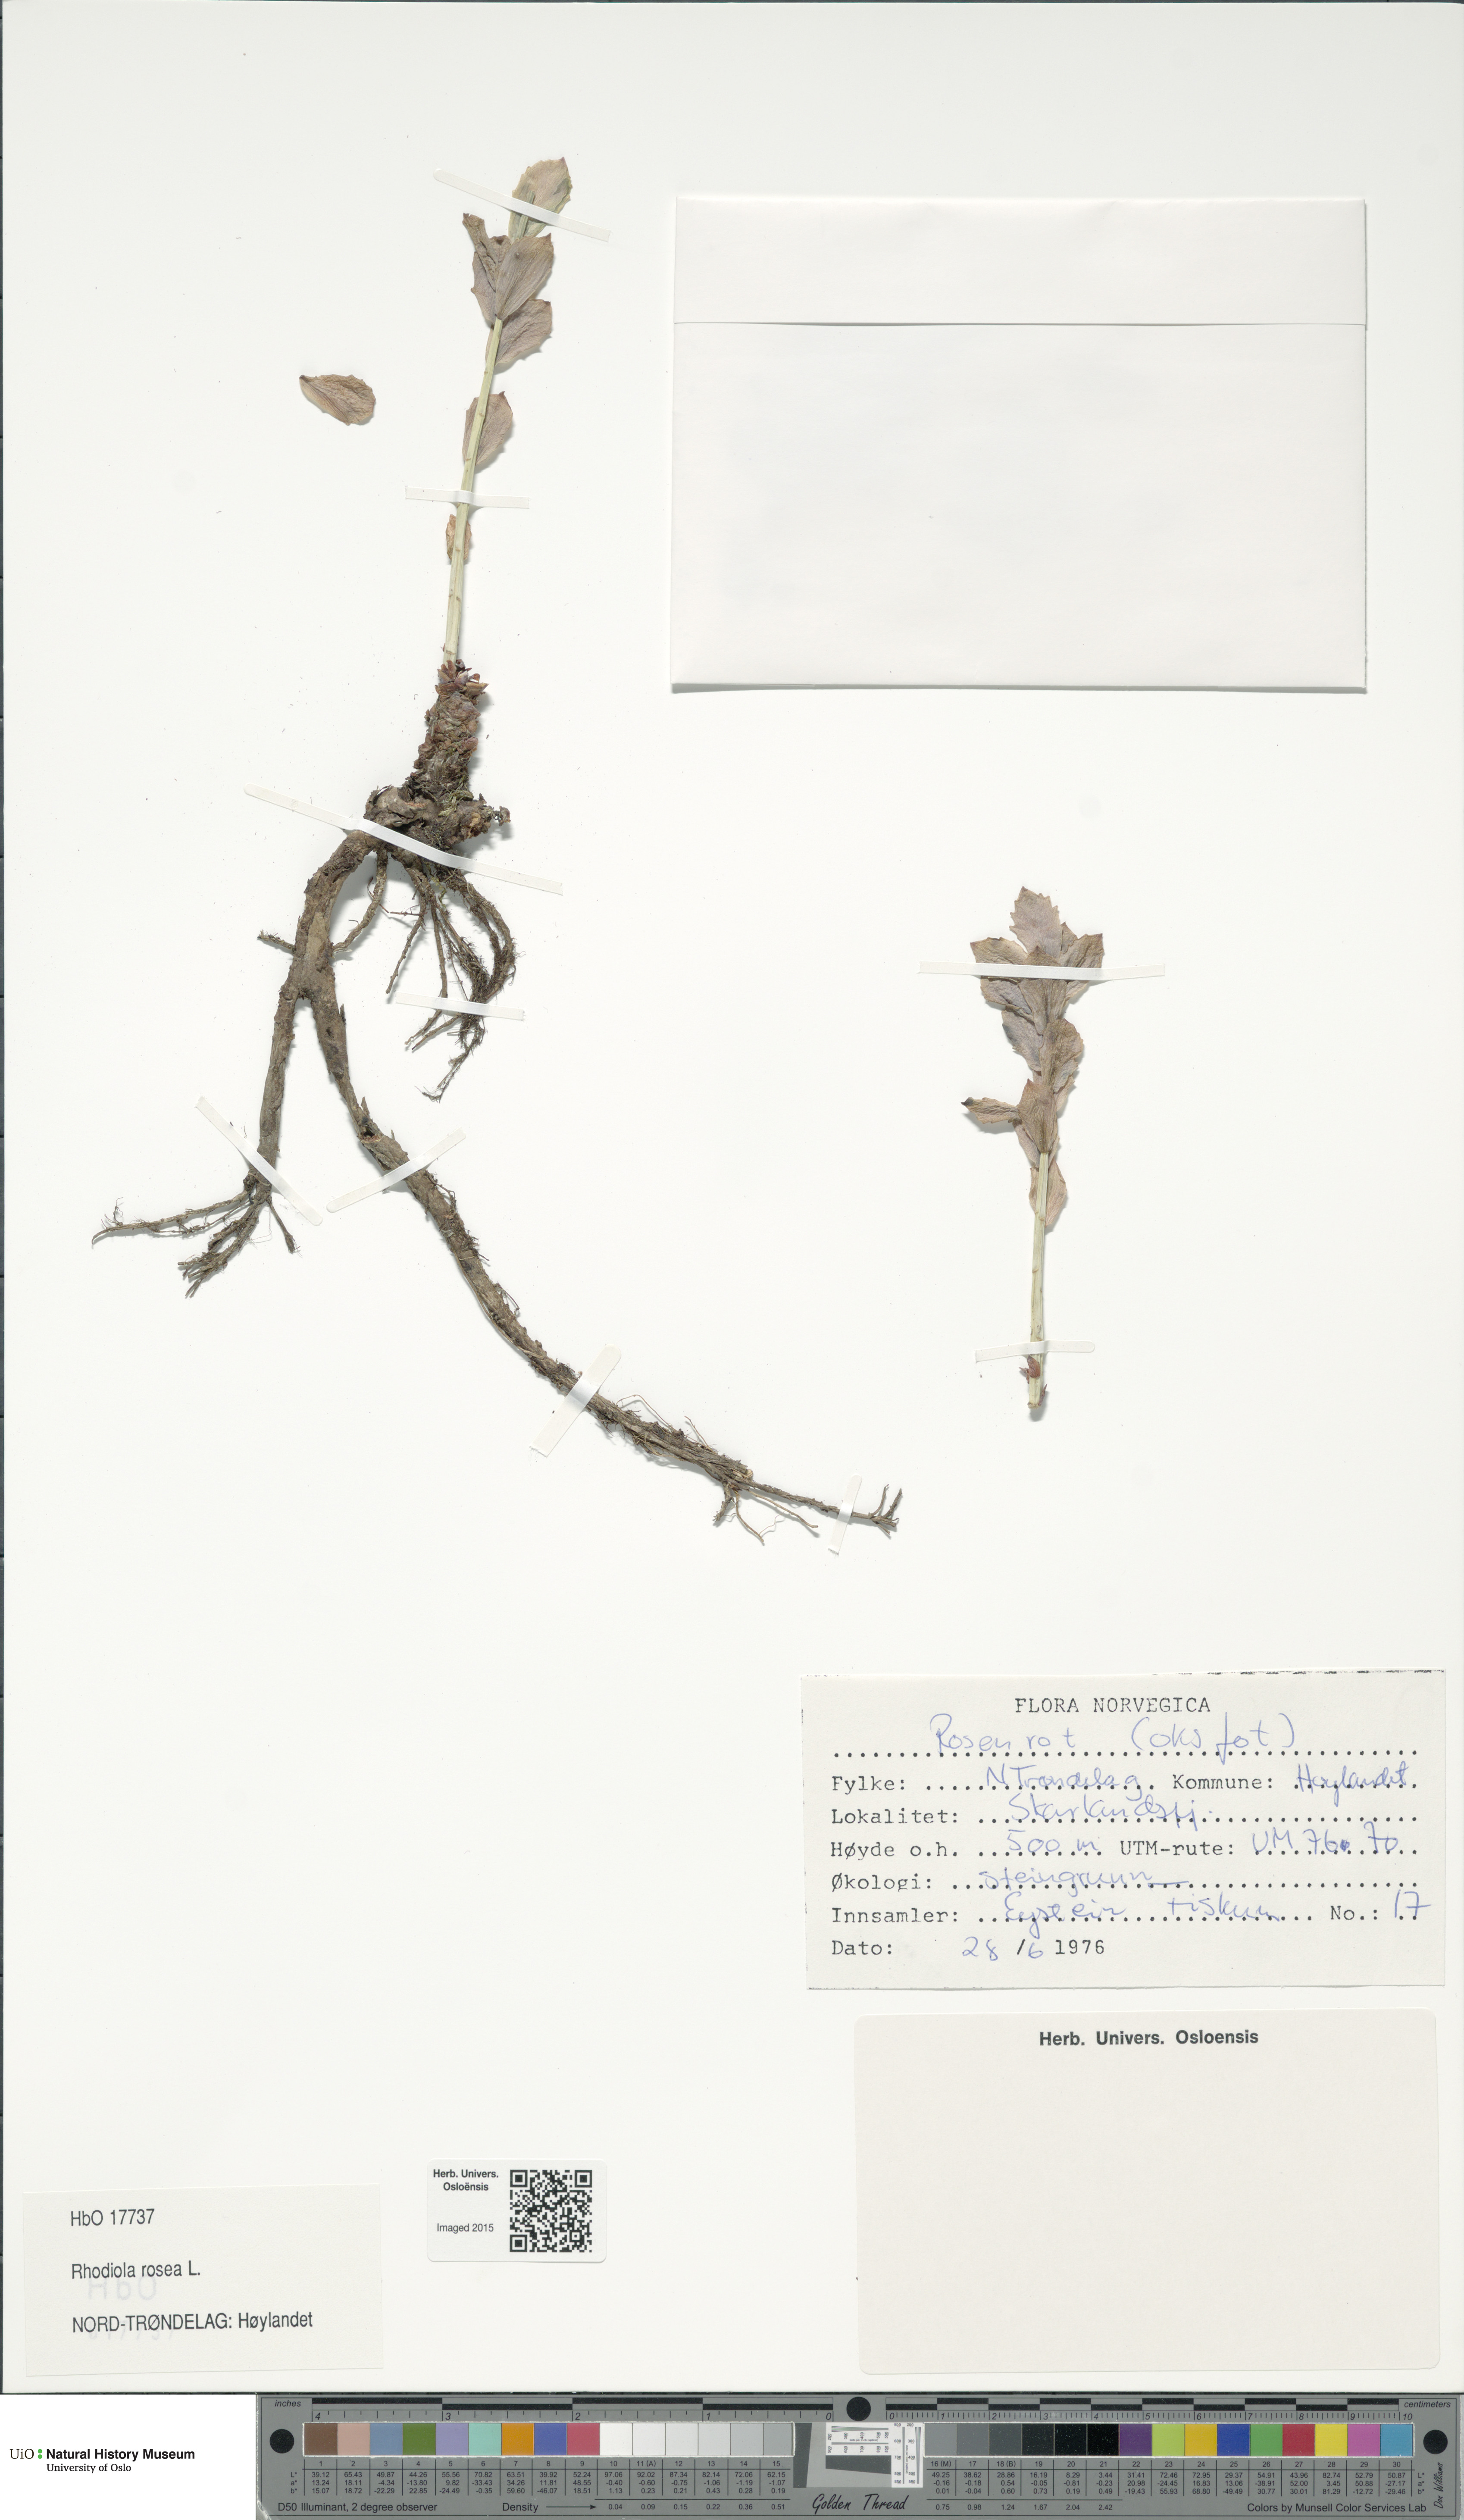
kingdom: Plantae
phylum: Tracheophyta
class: Magnoliopsida
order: Saxifragales
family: Crassulaceae
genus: Rhodiola
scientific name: Rhodiola rosea
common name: Roseroot
